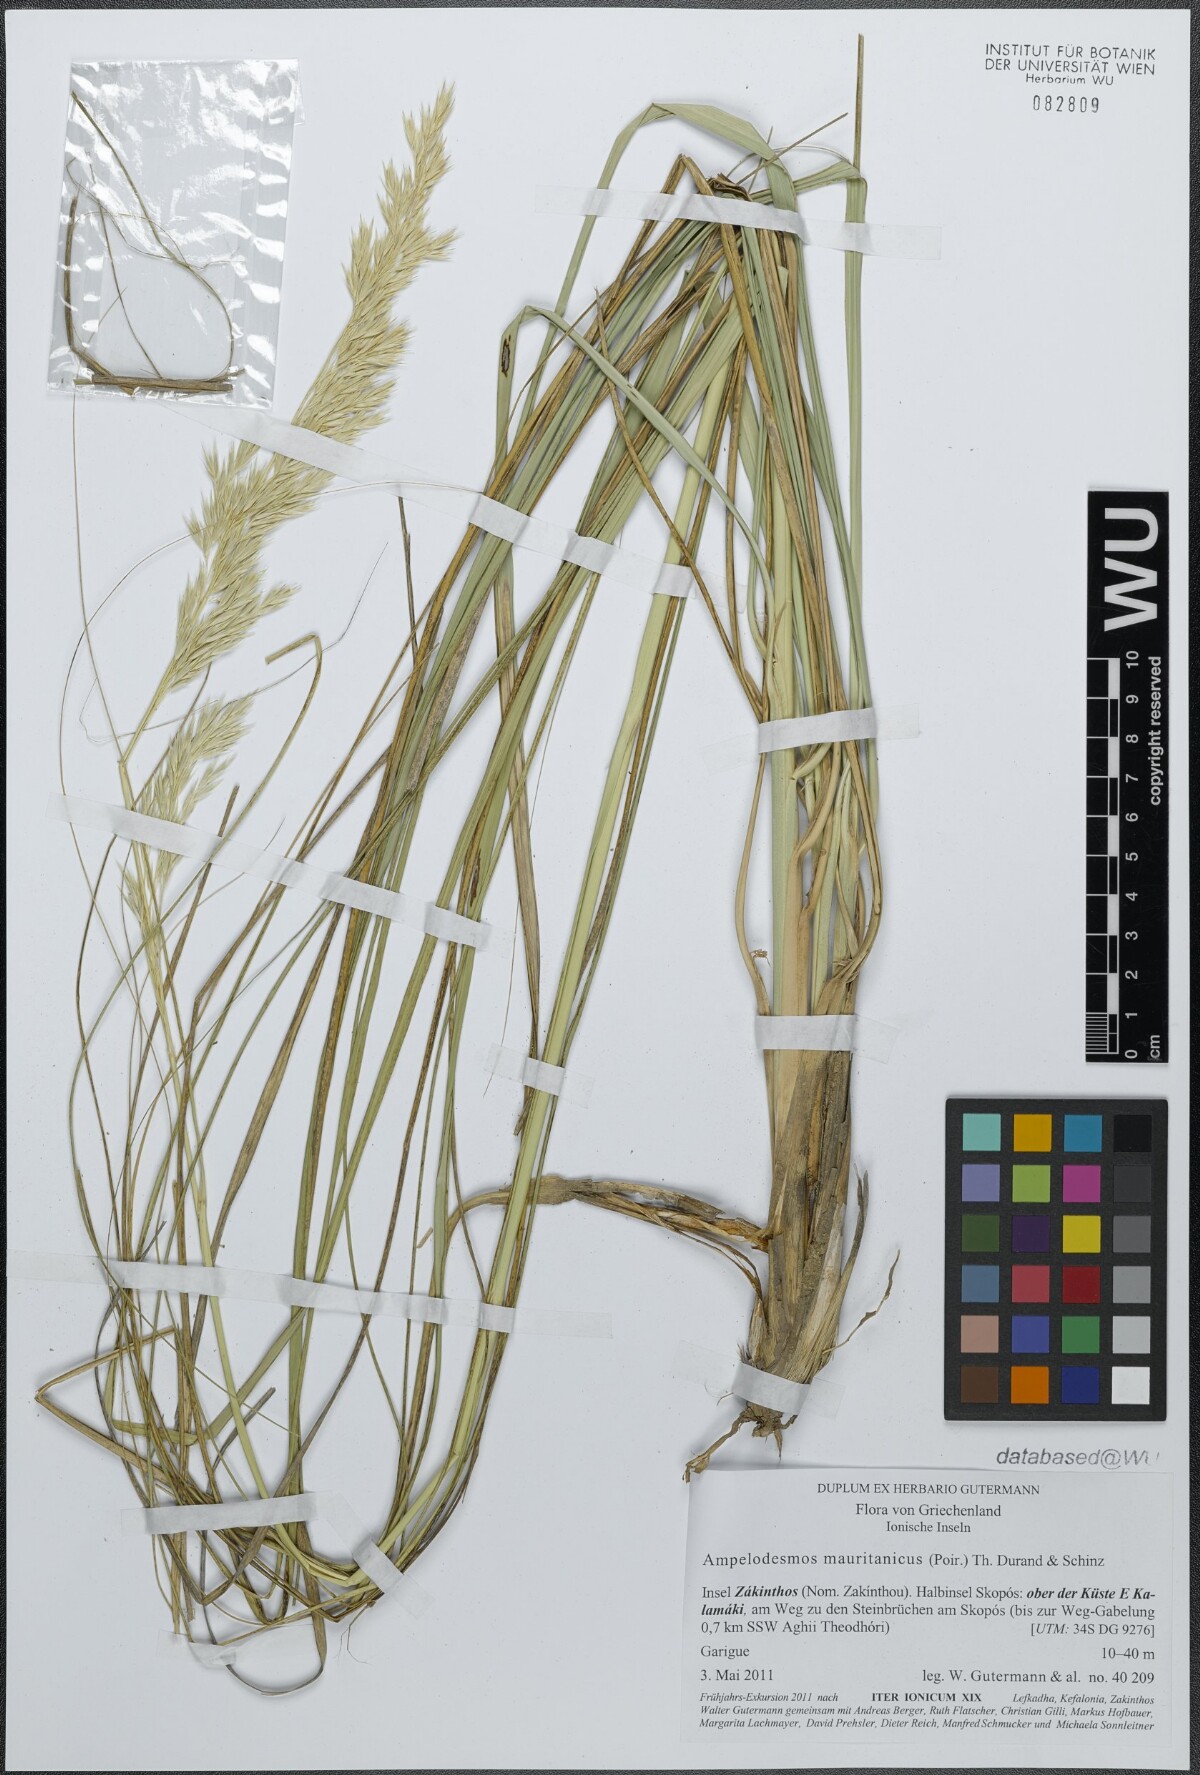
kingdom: Plantae
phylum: Tracheophyta
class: Liliopsida
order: Poales
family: Poaceae
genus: Ampelodesmos
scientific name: Ampelodesmos mauritanicus
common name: Mauritanian grass
